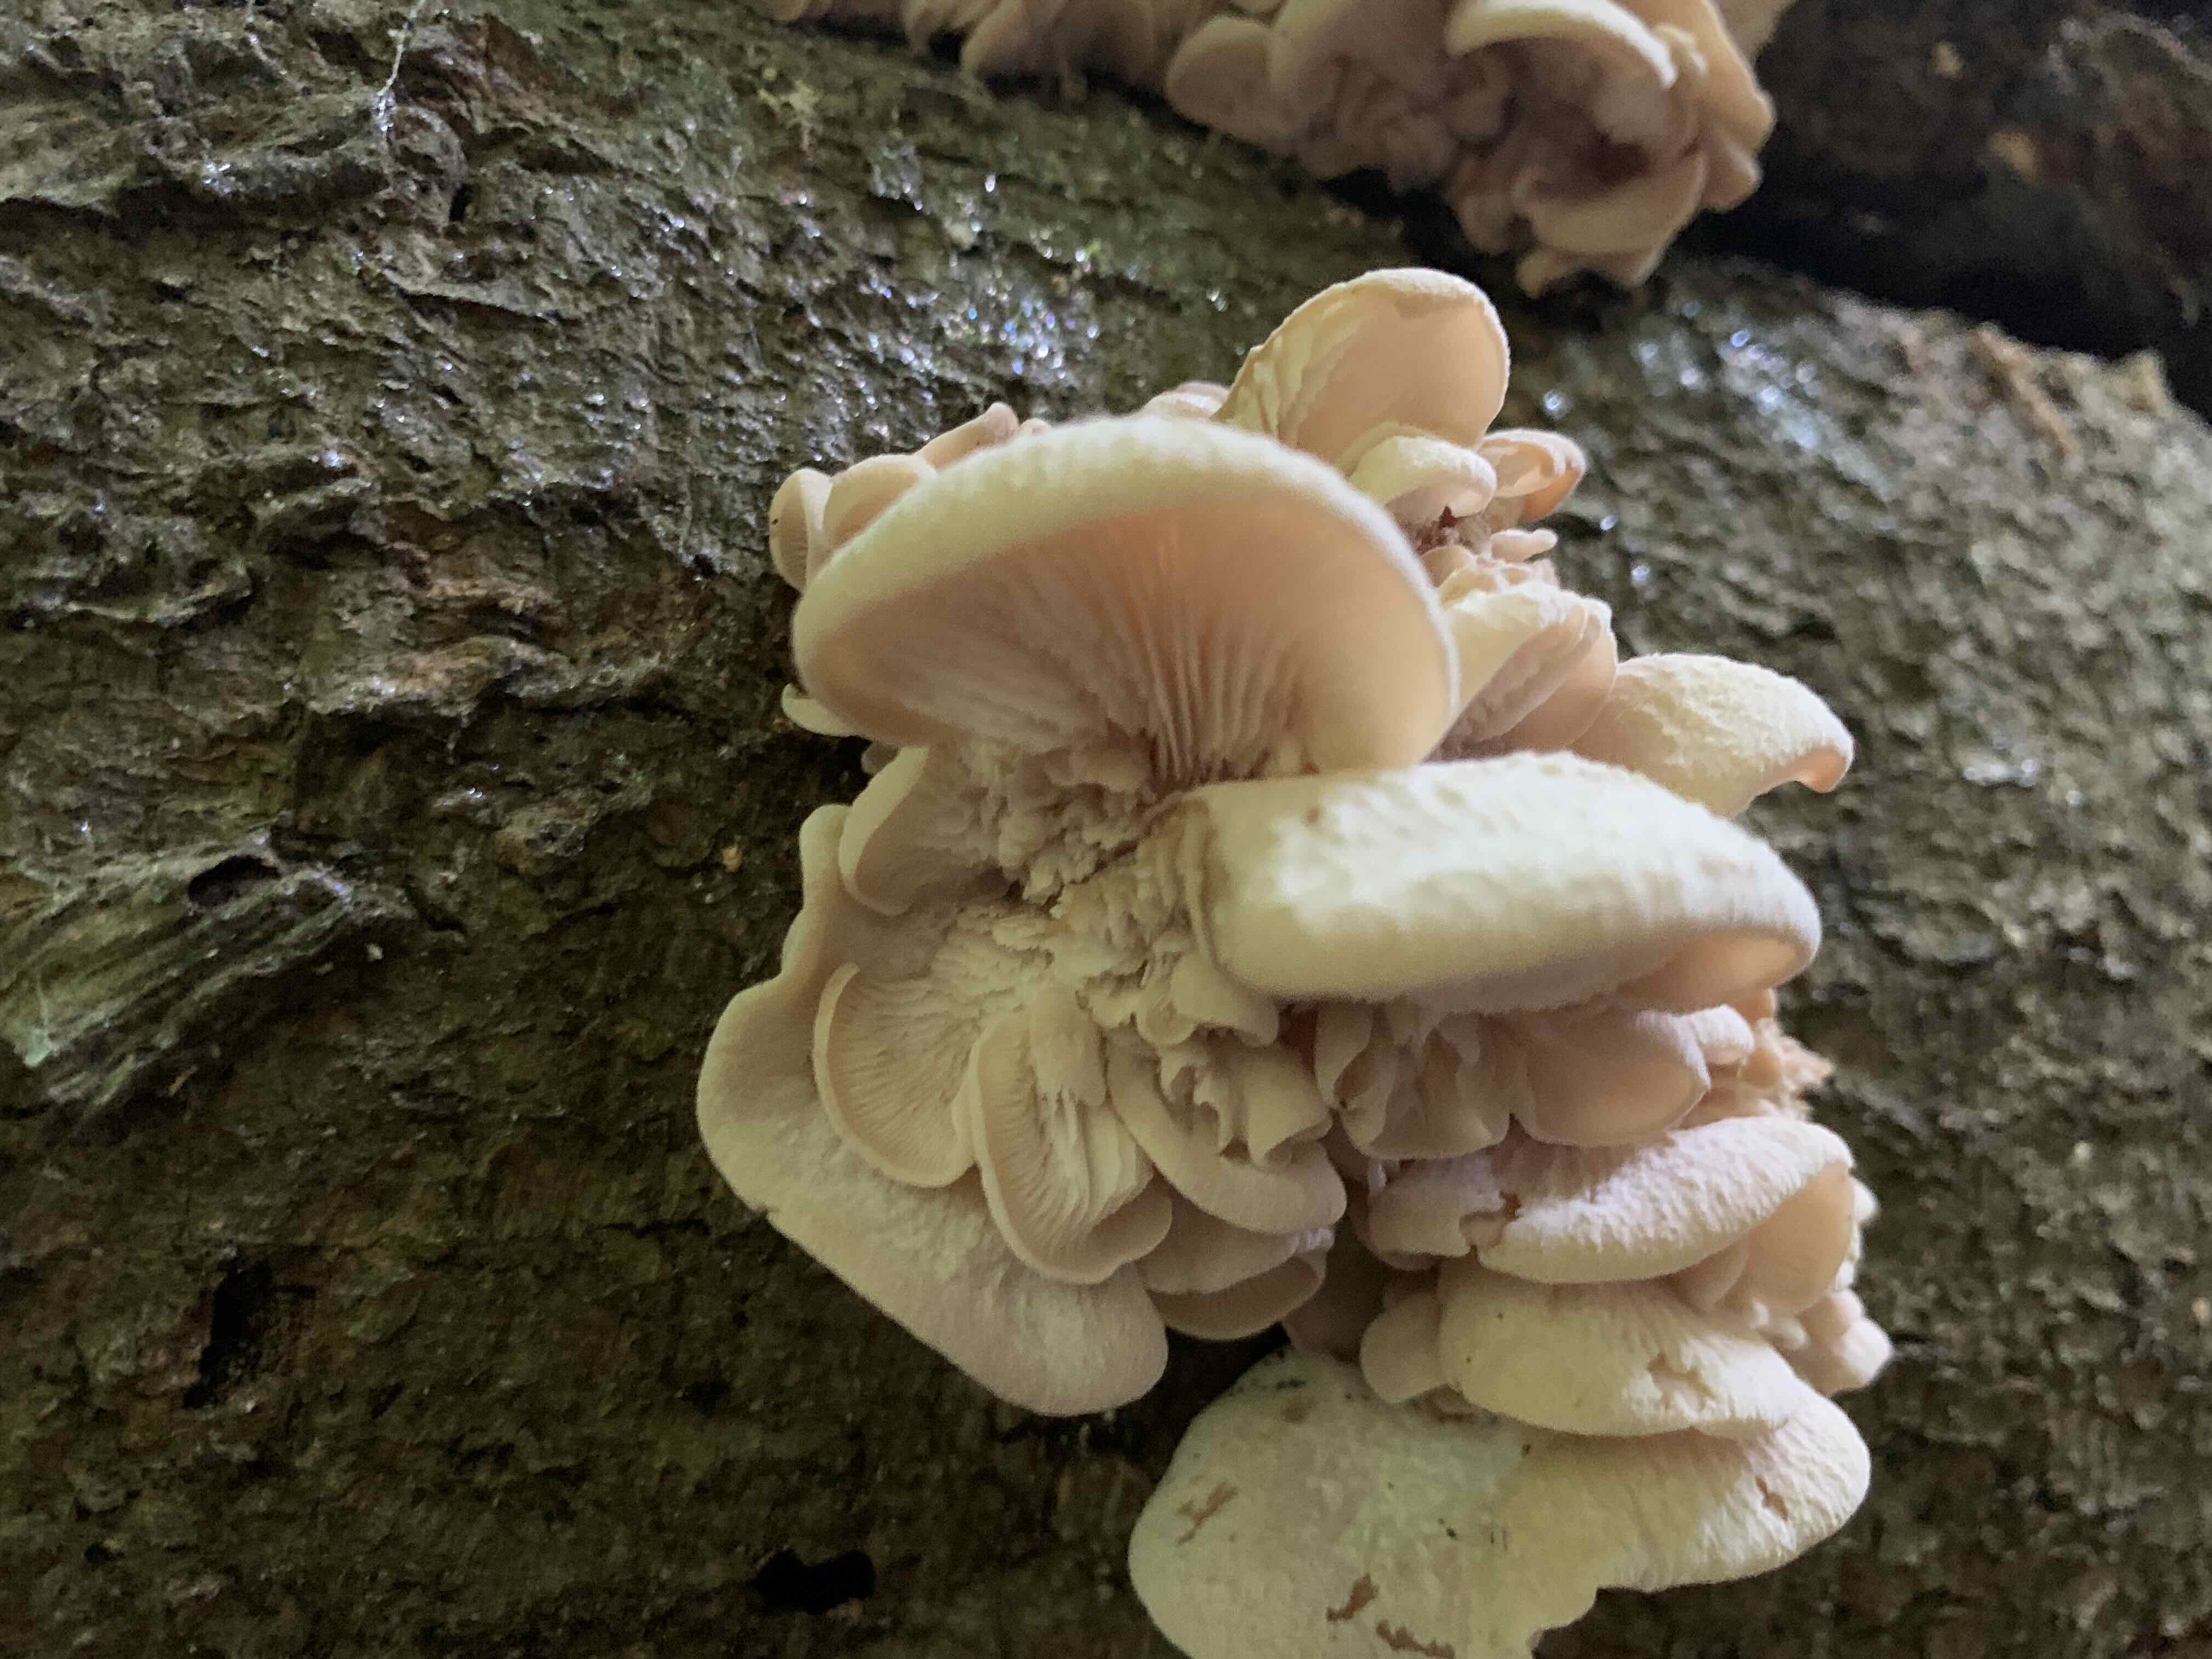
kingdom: Fungi
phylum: Basidiomycota
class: Agaricomycetes
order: Russulales
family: Auriscalpiaceae
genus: Lentinellus
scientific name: Lentinellus ursinus
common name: børstehåret savbladhat
